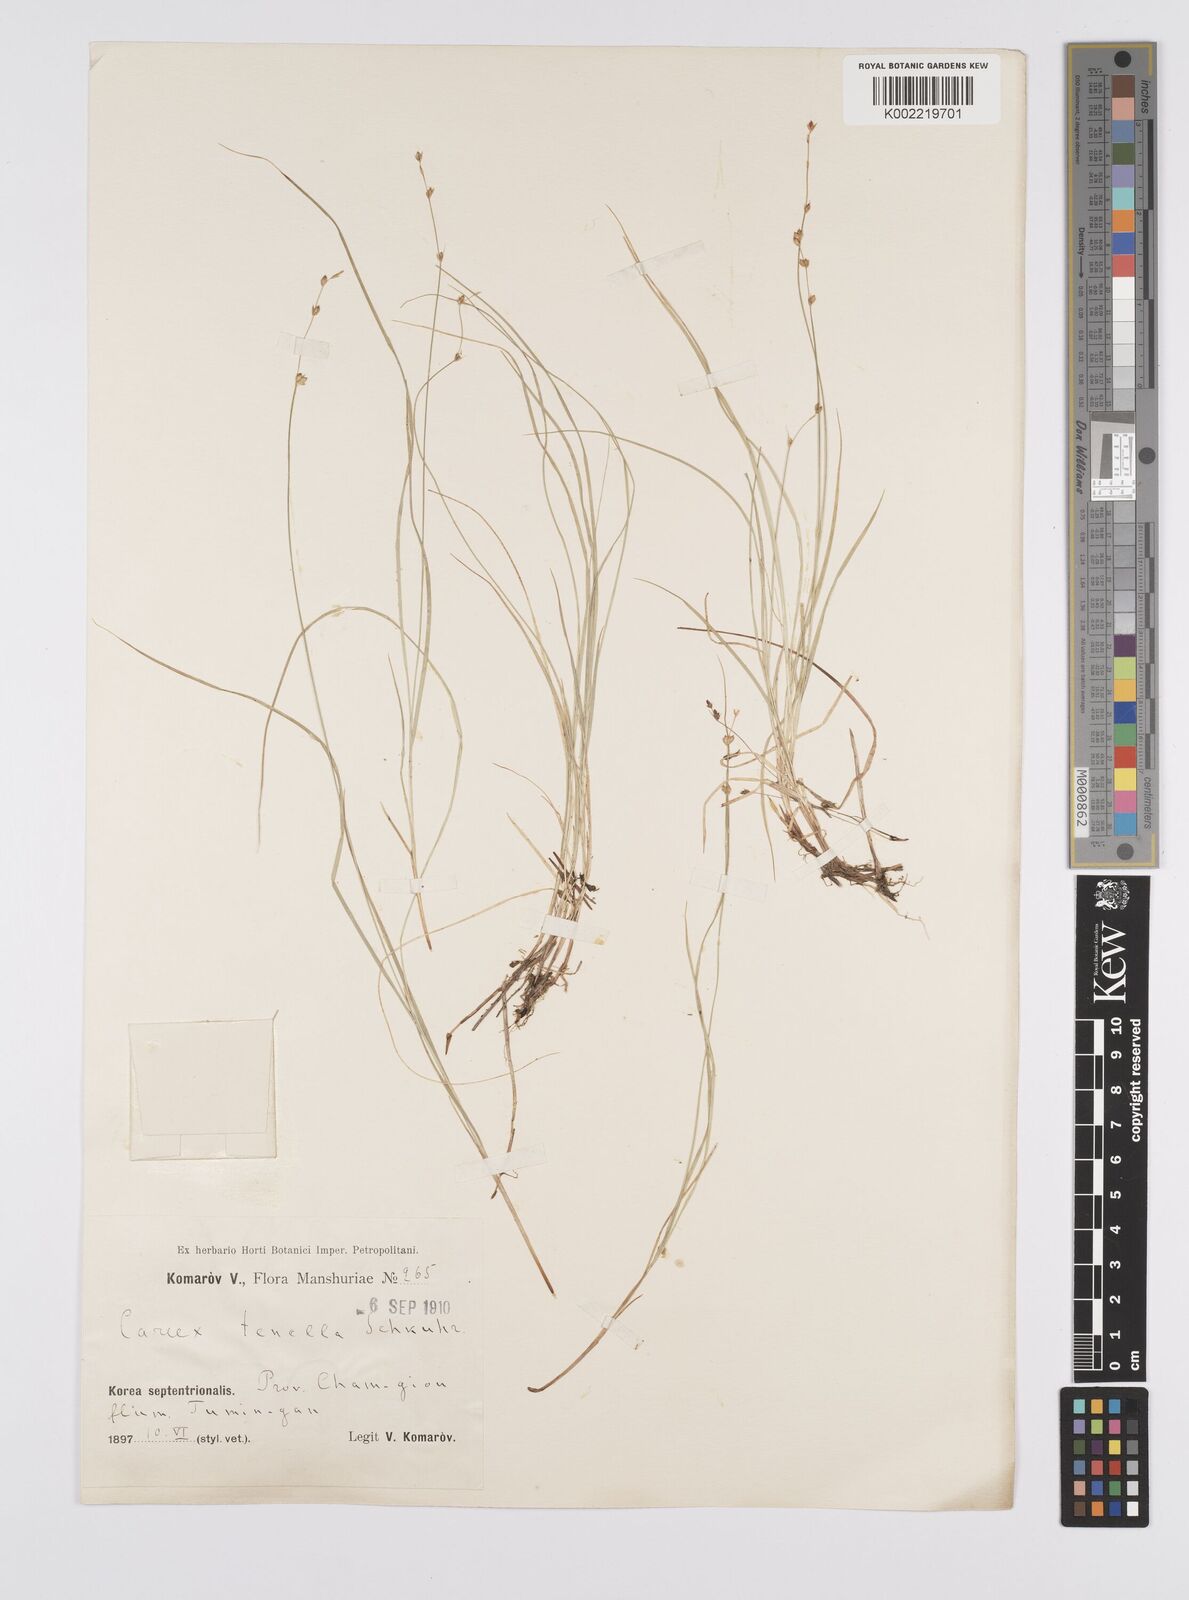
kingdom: Plantae
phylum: Tracheophyta
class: Liliopsida
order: Poales
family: Cyperaceae
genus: Carex
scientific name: Carex disperma
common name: Short-leaved sedge
